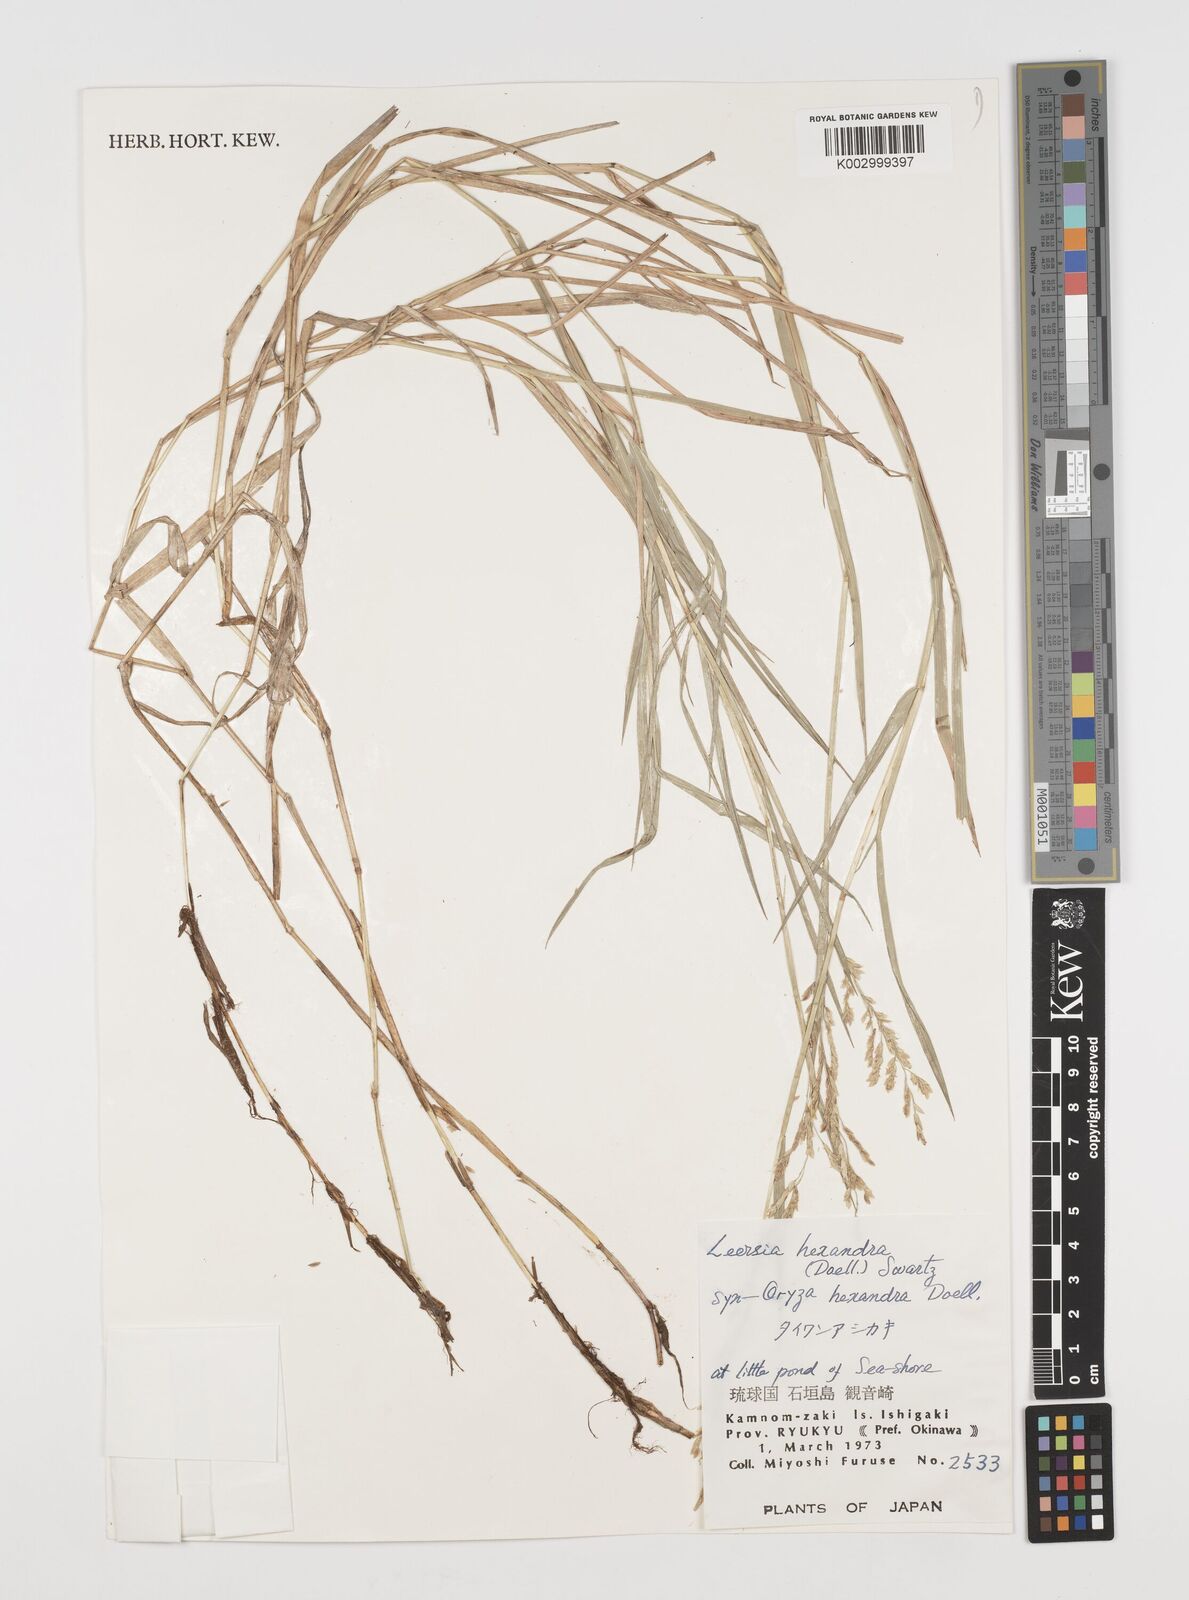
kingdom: Plantae
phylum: Tracheophyta
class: Liliopsida
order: Poales
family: Poaceae
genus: Leersia
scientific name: Leersia hexandra
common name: Southern cut grass
